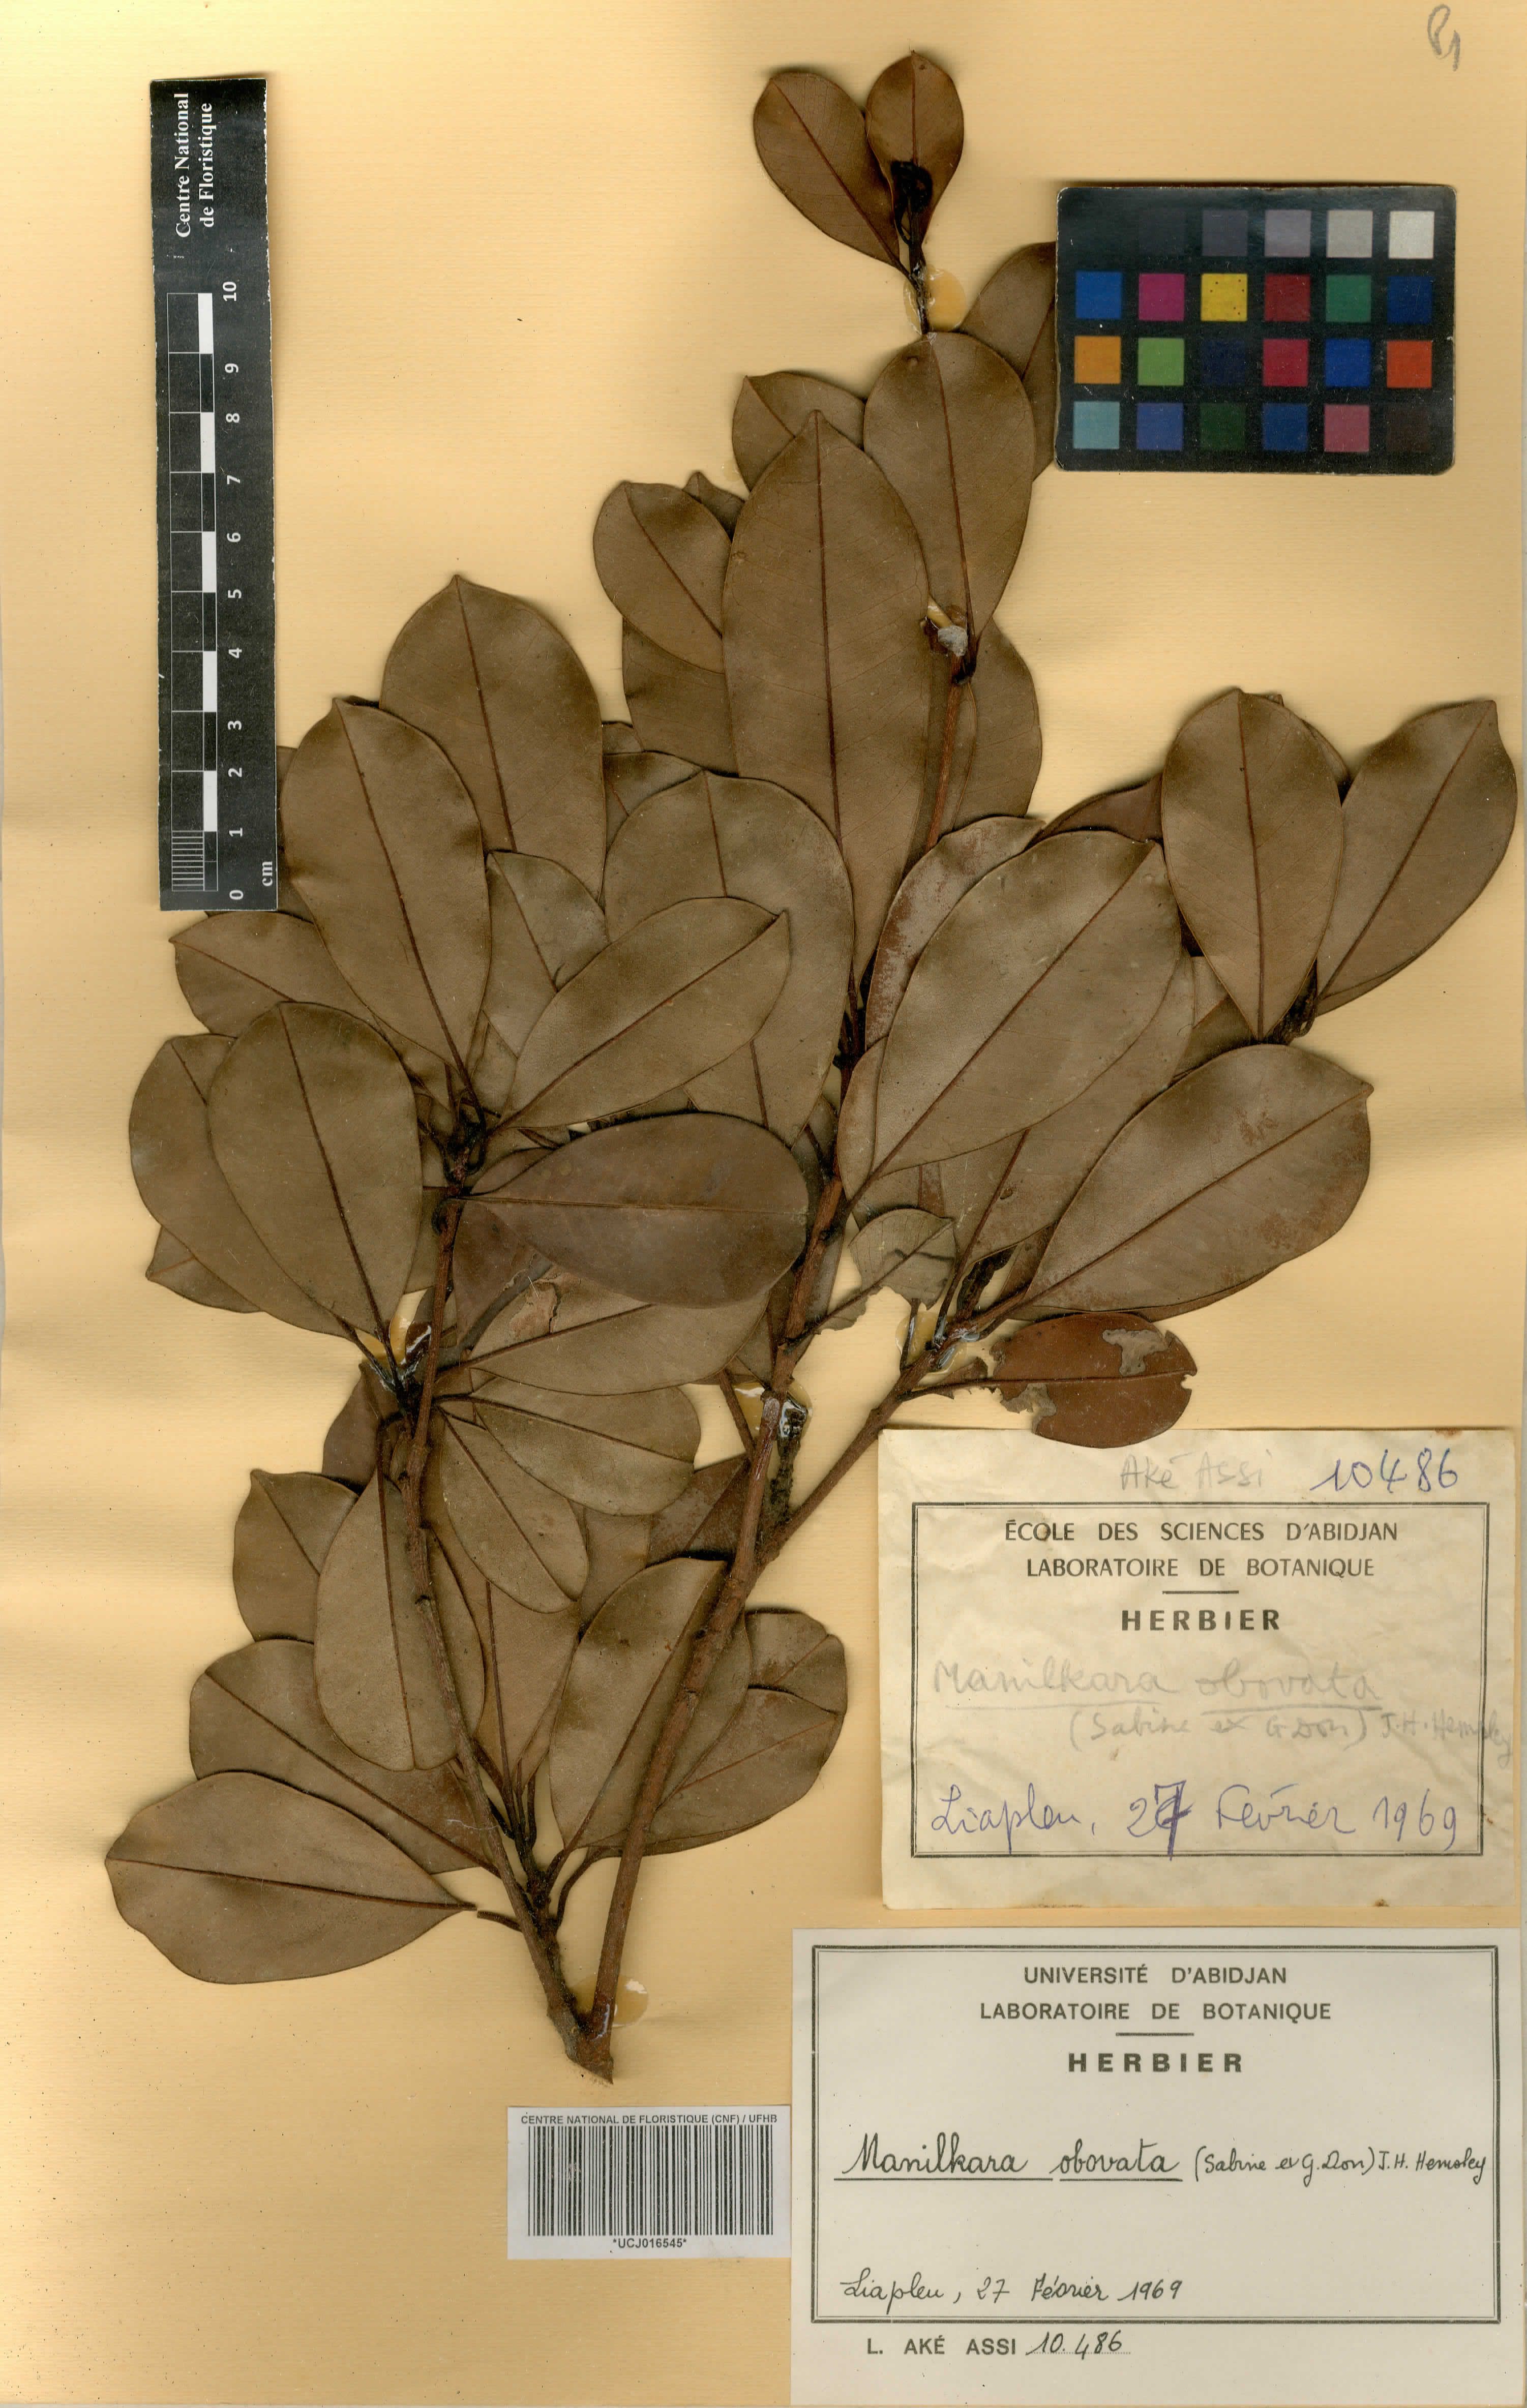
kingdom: Plantae
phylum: Tracheophyta
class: Magnoliopsida
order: Ericales
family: Sapotaceae
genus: Manilkara
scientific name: Manilkara obovata
